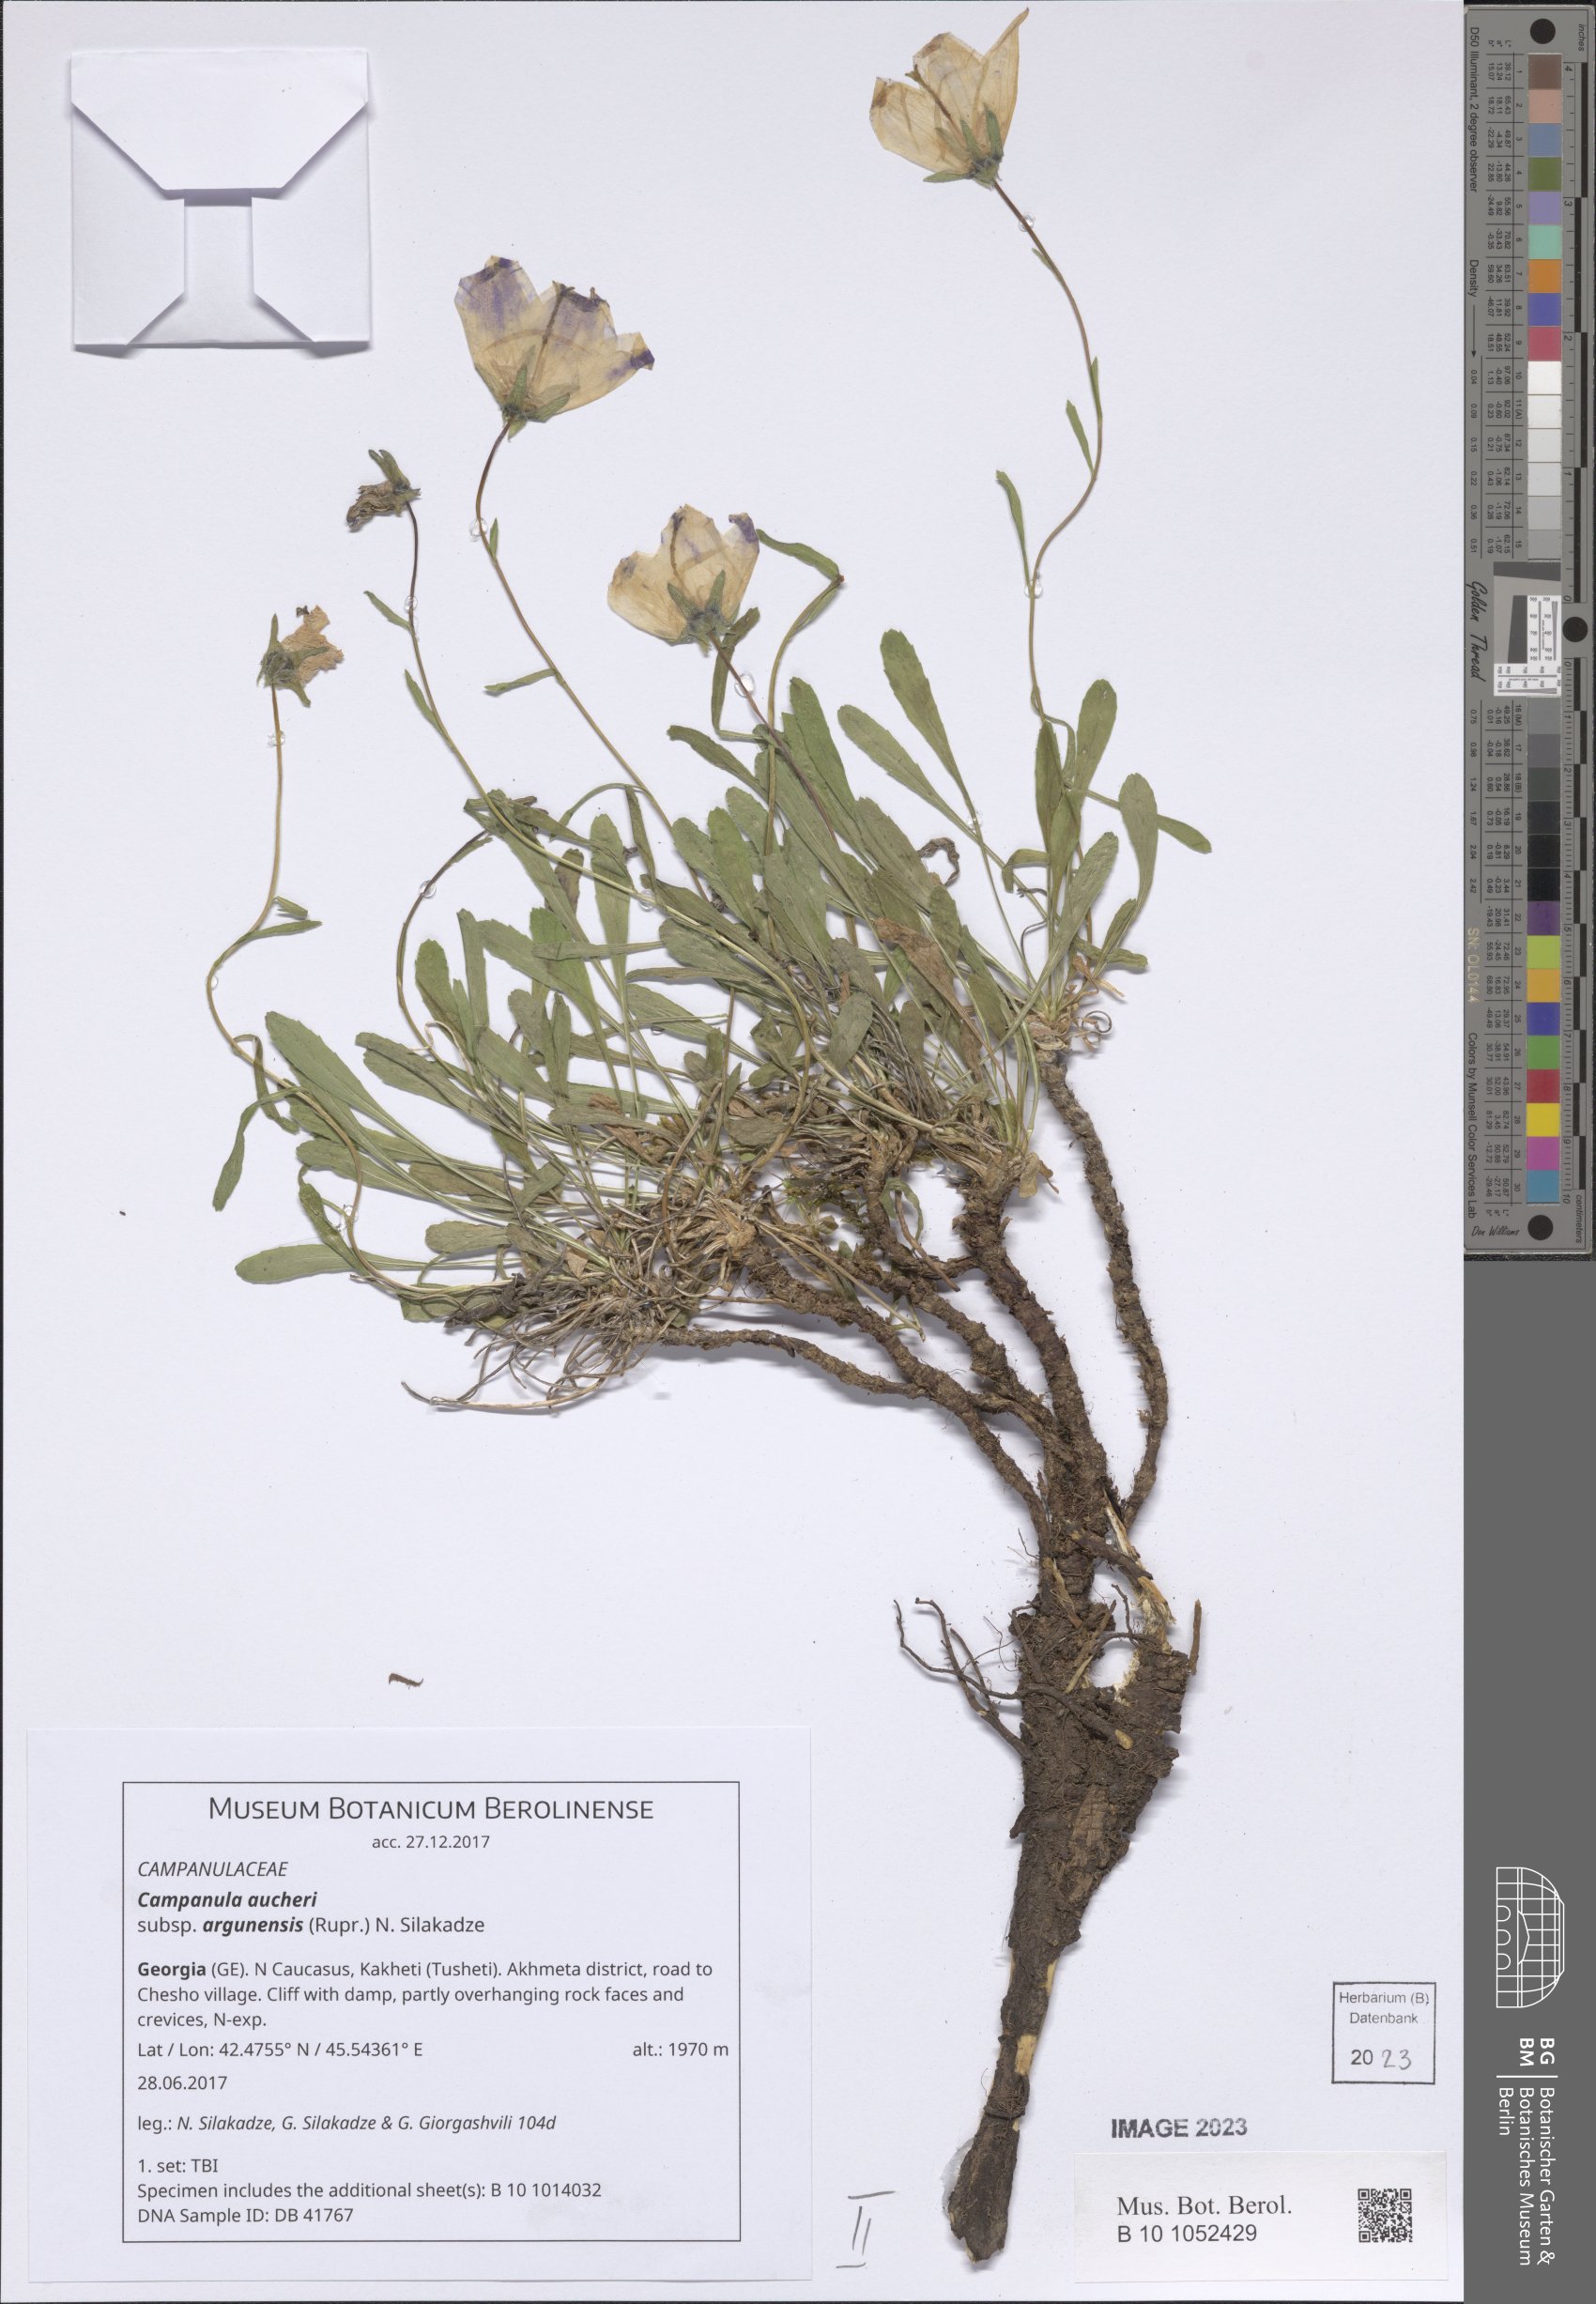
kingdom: Plantae
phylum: Tracheophyta
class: Magnoliopsida
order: Asterales
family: Campanulaceae
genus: Campanula
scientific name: Campanula saxifraga
